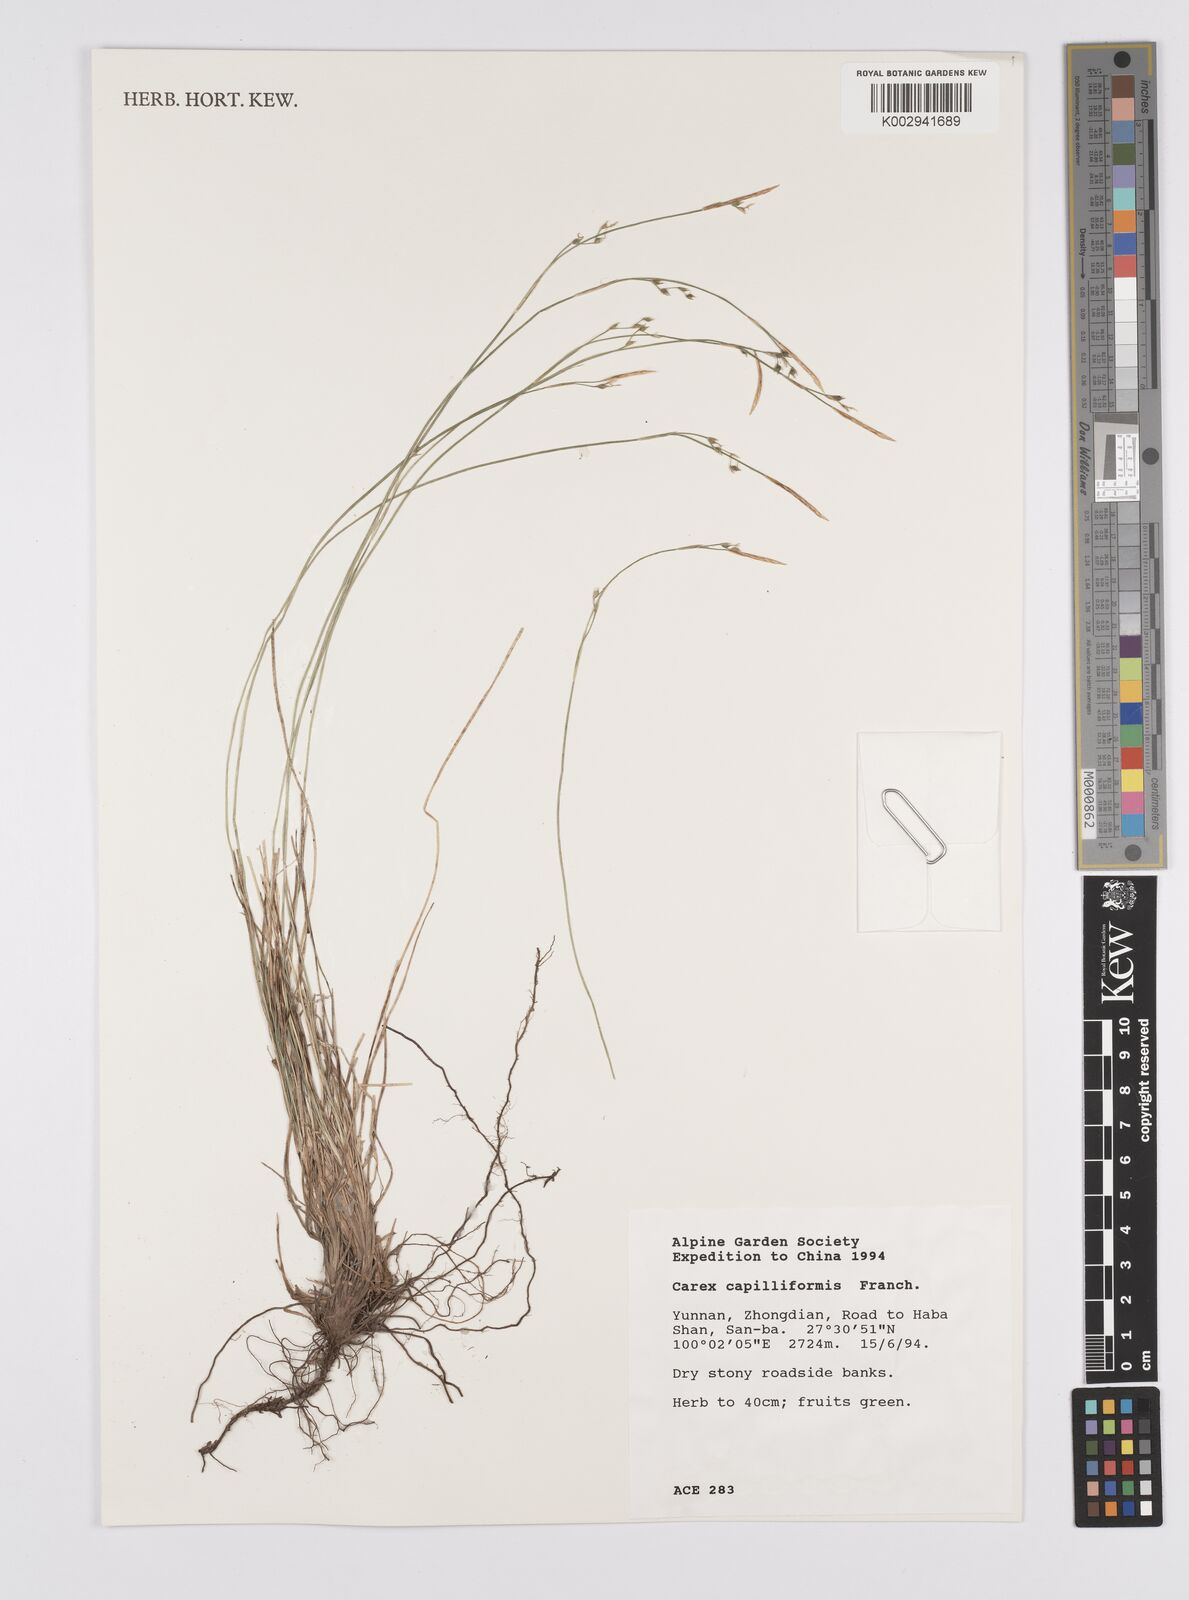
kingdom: Plantae
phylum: Tracheophyta
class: Liliopsida
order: Poales
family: Cyperaceae
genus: Carex
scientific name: Carex capillaris
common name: Hair sedge
